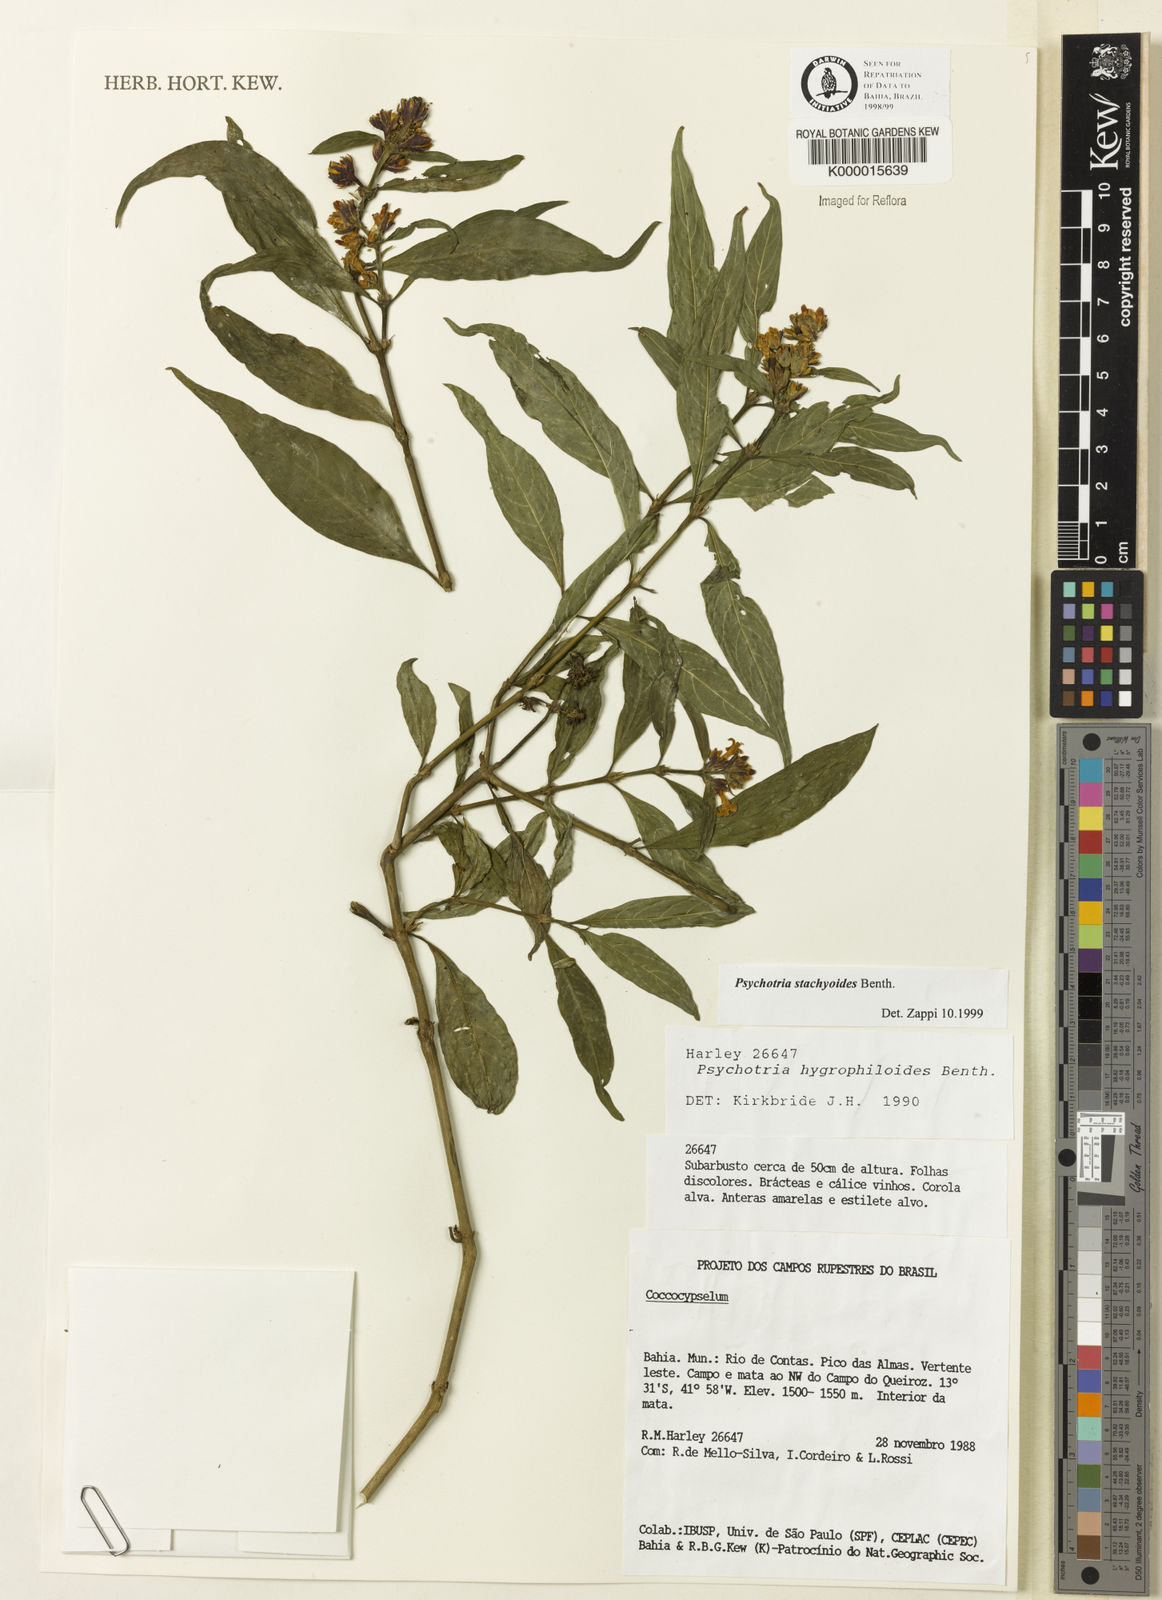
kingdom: Plantae
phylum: Tracheophyta
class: Magnoliopsida
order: Gentianales
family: Rubiaceae
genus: Psychotria
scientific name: Psychotria stachyoides
